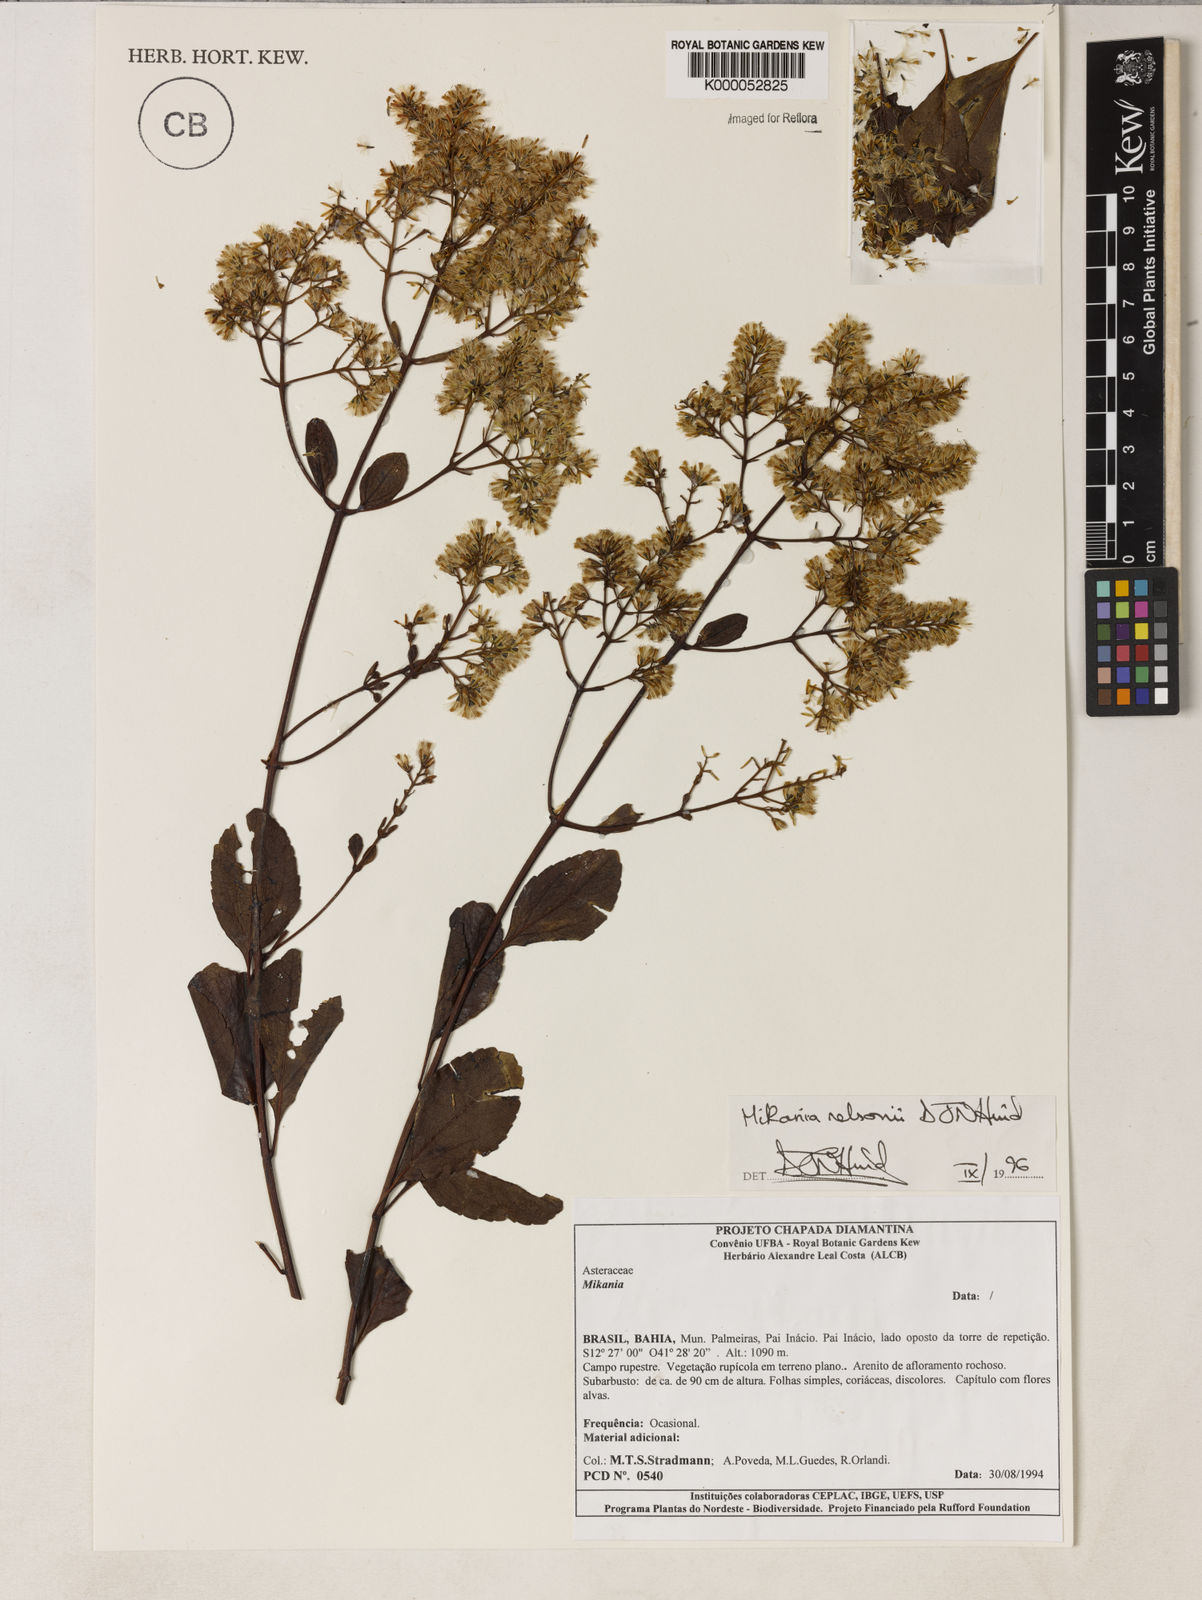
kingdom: Plantae
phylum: Tracheophyta
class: Magnoliopsida
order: Asterales
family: Asteraceae
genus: Mikania
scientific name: Mikania nelsonii
